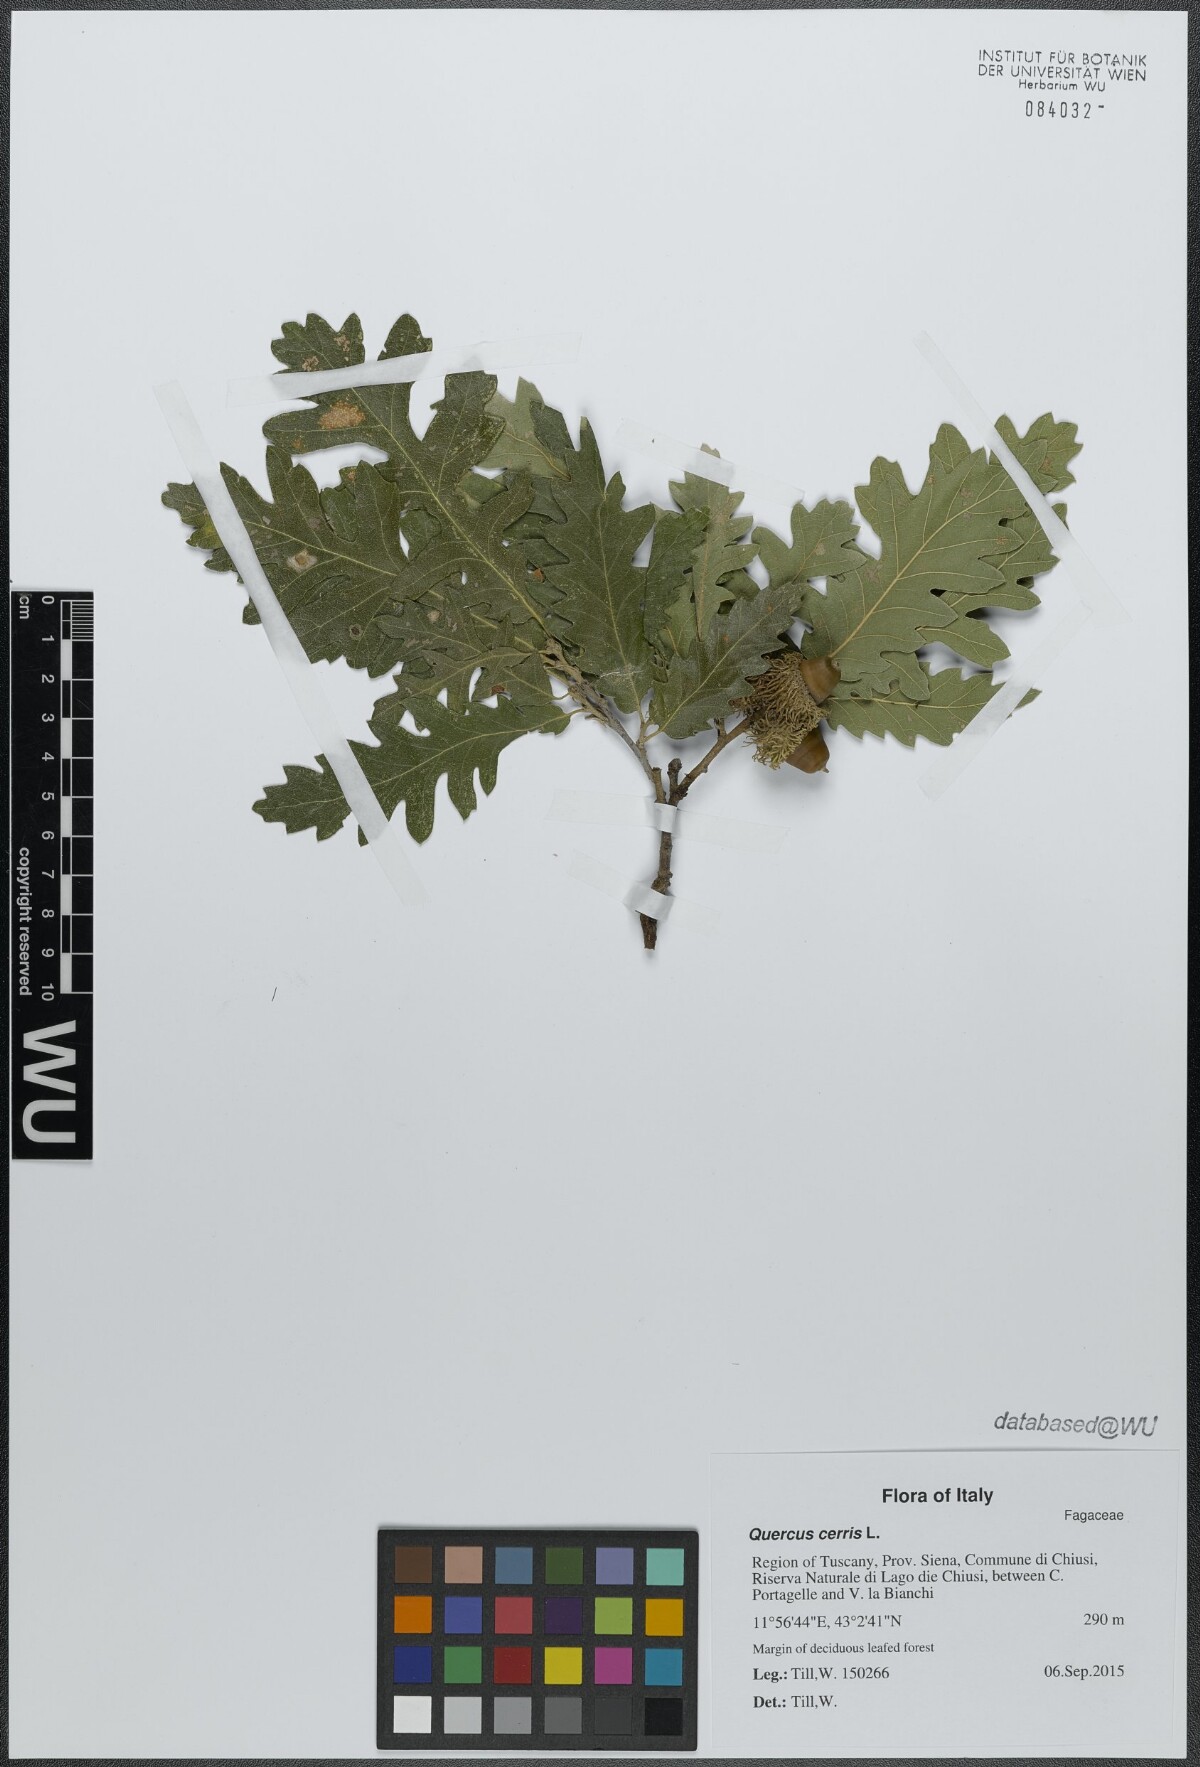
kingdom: Plantae
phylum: Tracheophyta
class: Magnoliopsida
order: Fagales
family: Fagaceae
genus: Quercus
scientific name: Quercus cerris
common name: Turkey oak
